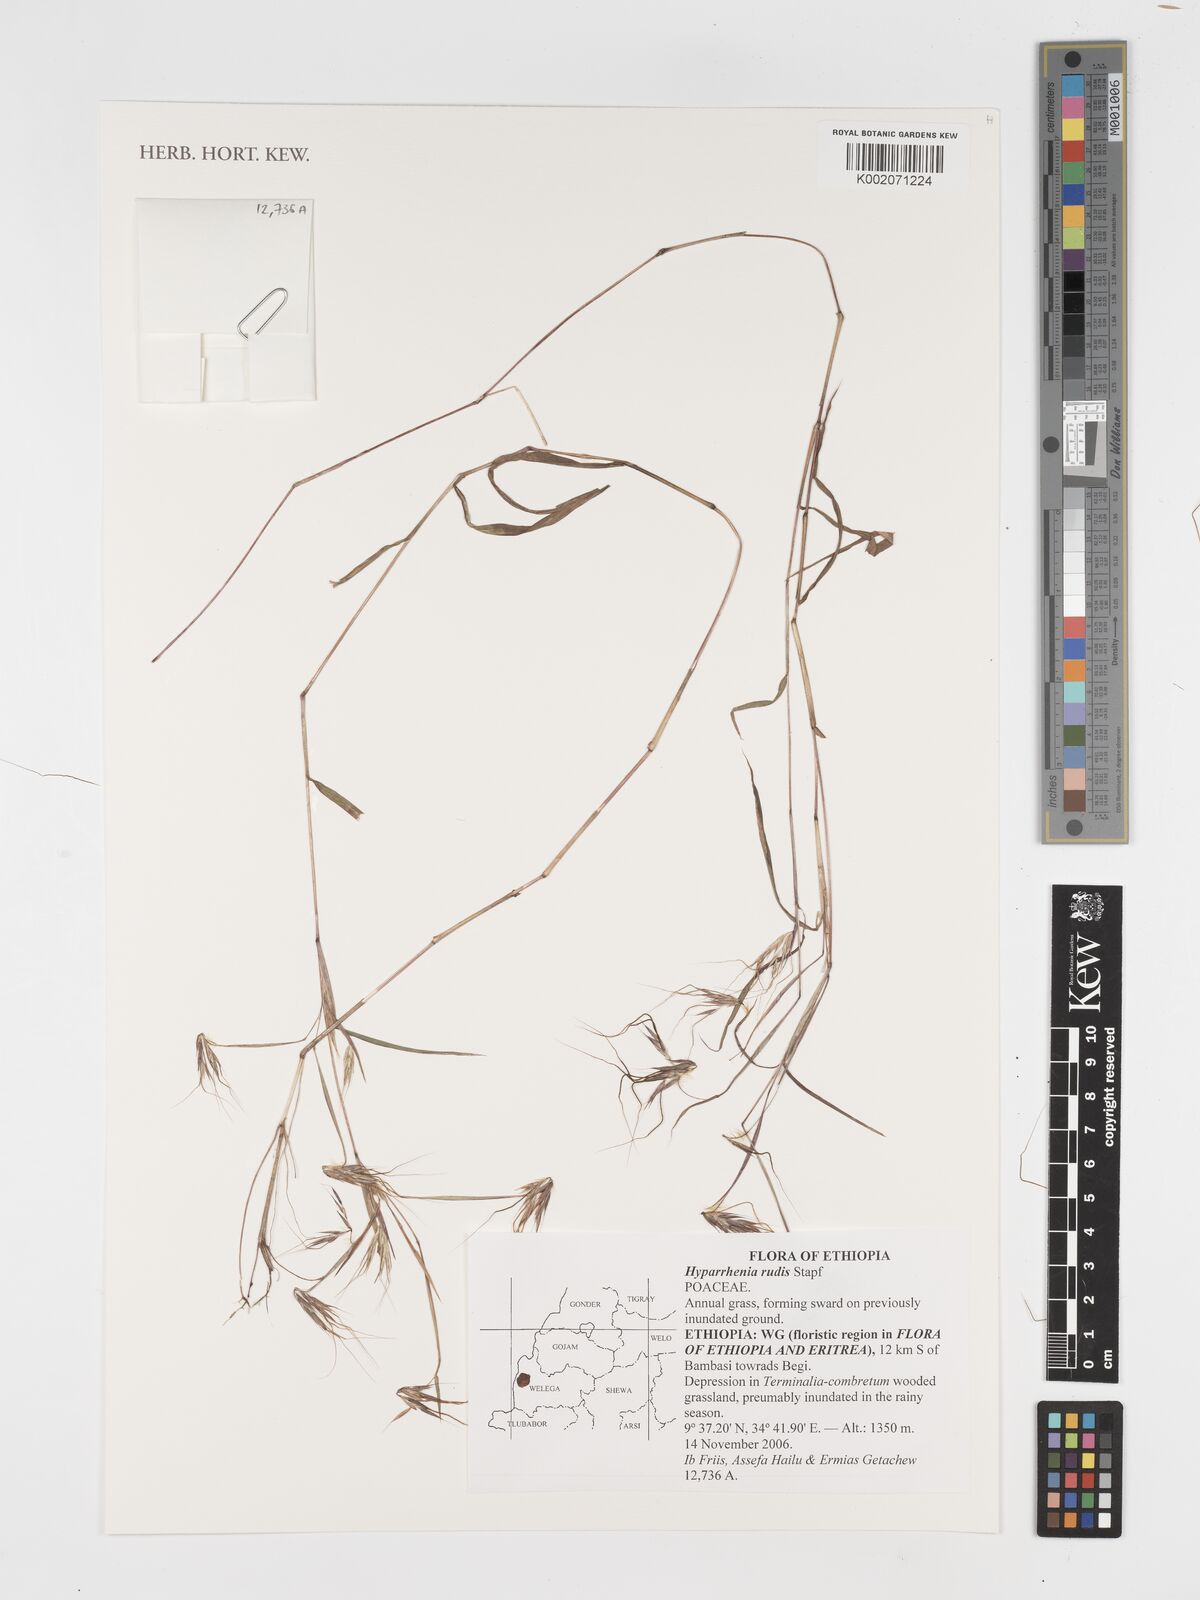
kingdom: Plantae
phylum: Tracheophyta
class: Liliopsida
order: Poales
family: Poaceae
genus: Hyparrhenia
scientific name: Hyparrhenia rudis
